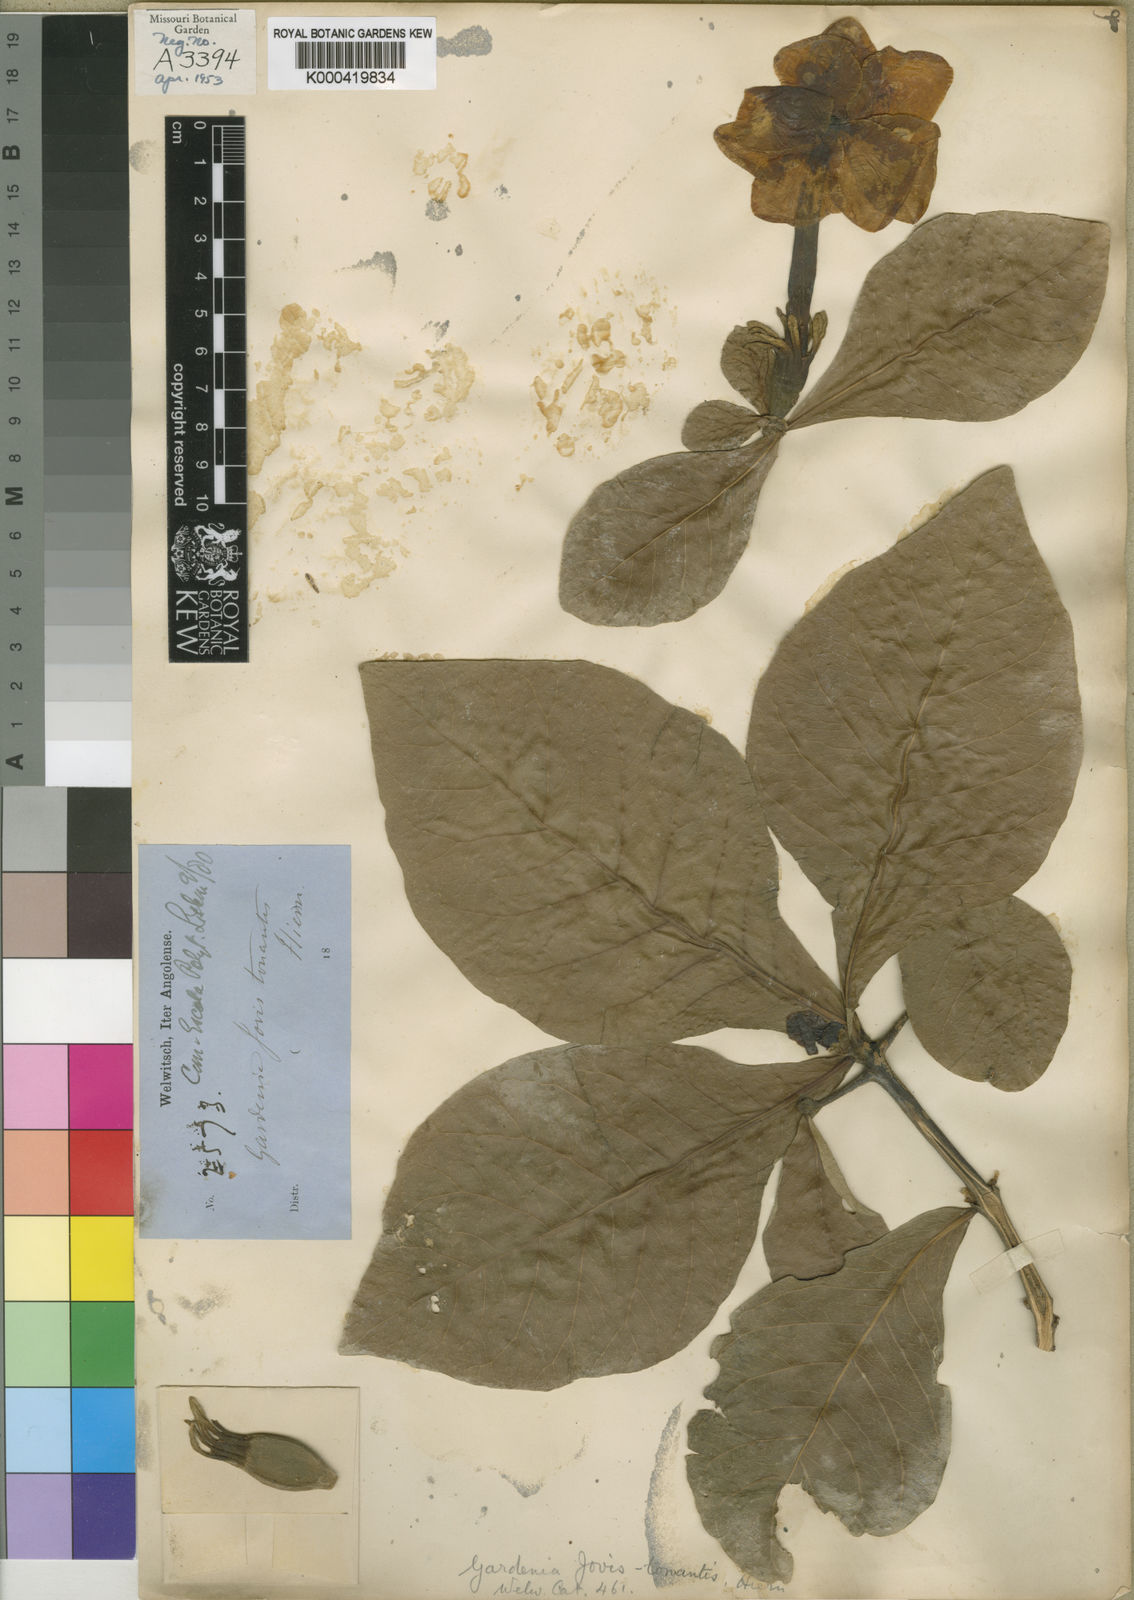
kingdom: Plantae
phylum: Tracheophyta
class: Magnoliopsida
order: Gentianales
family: Rubiaceae
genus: Gardenia
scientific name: Gardenia ternifolia
